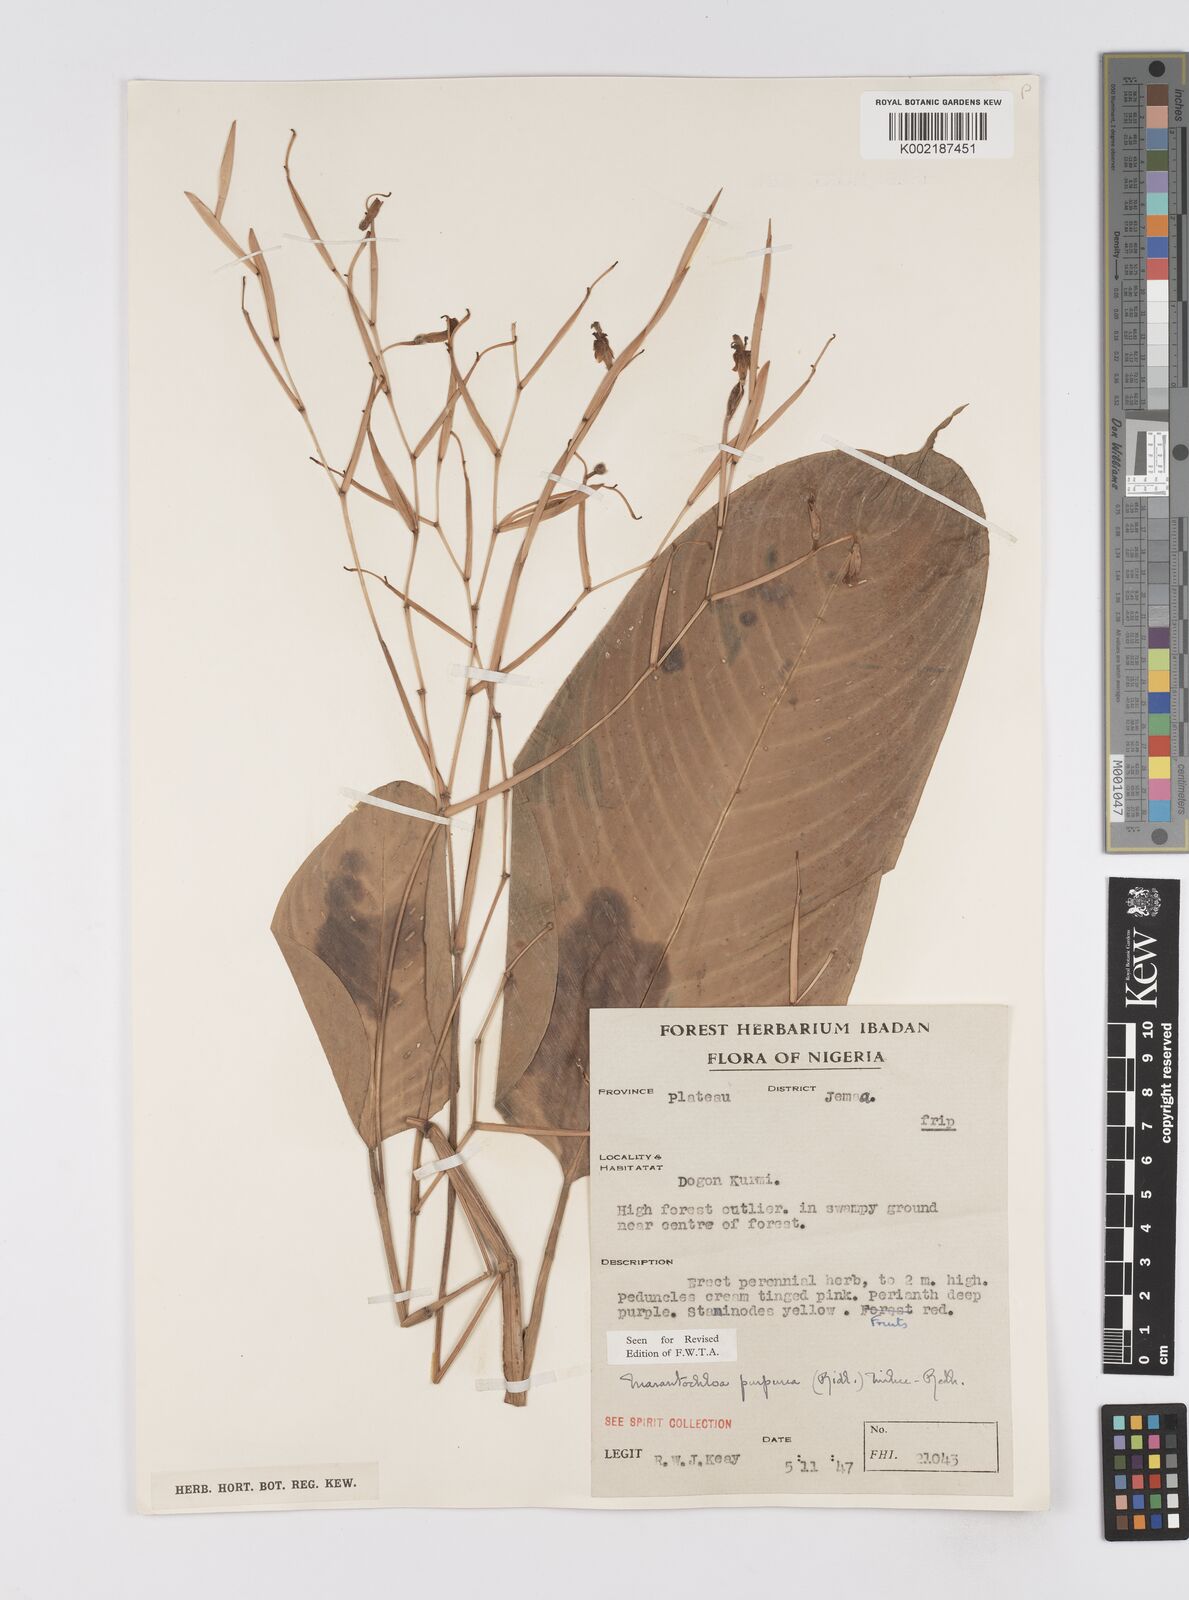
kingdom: Plantae
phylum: Tracheophyta
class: Liliopsida
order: Zingiberales
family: Marantaceae
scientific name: Marantaceae
